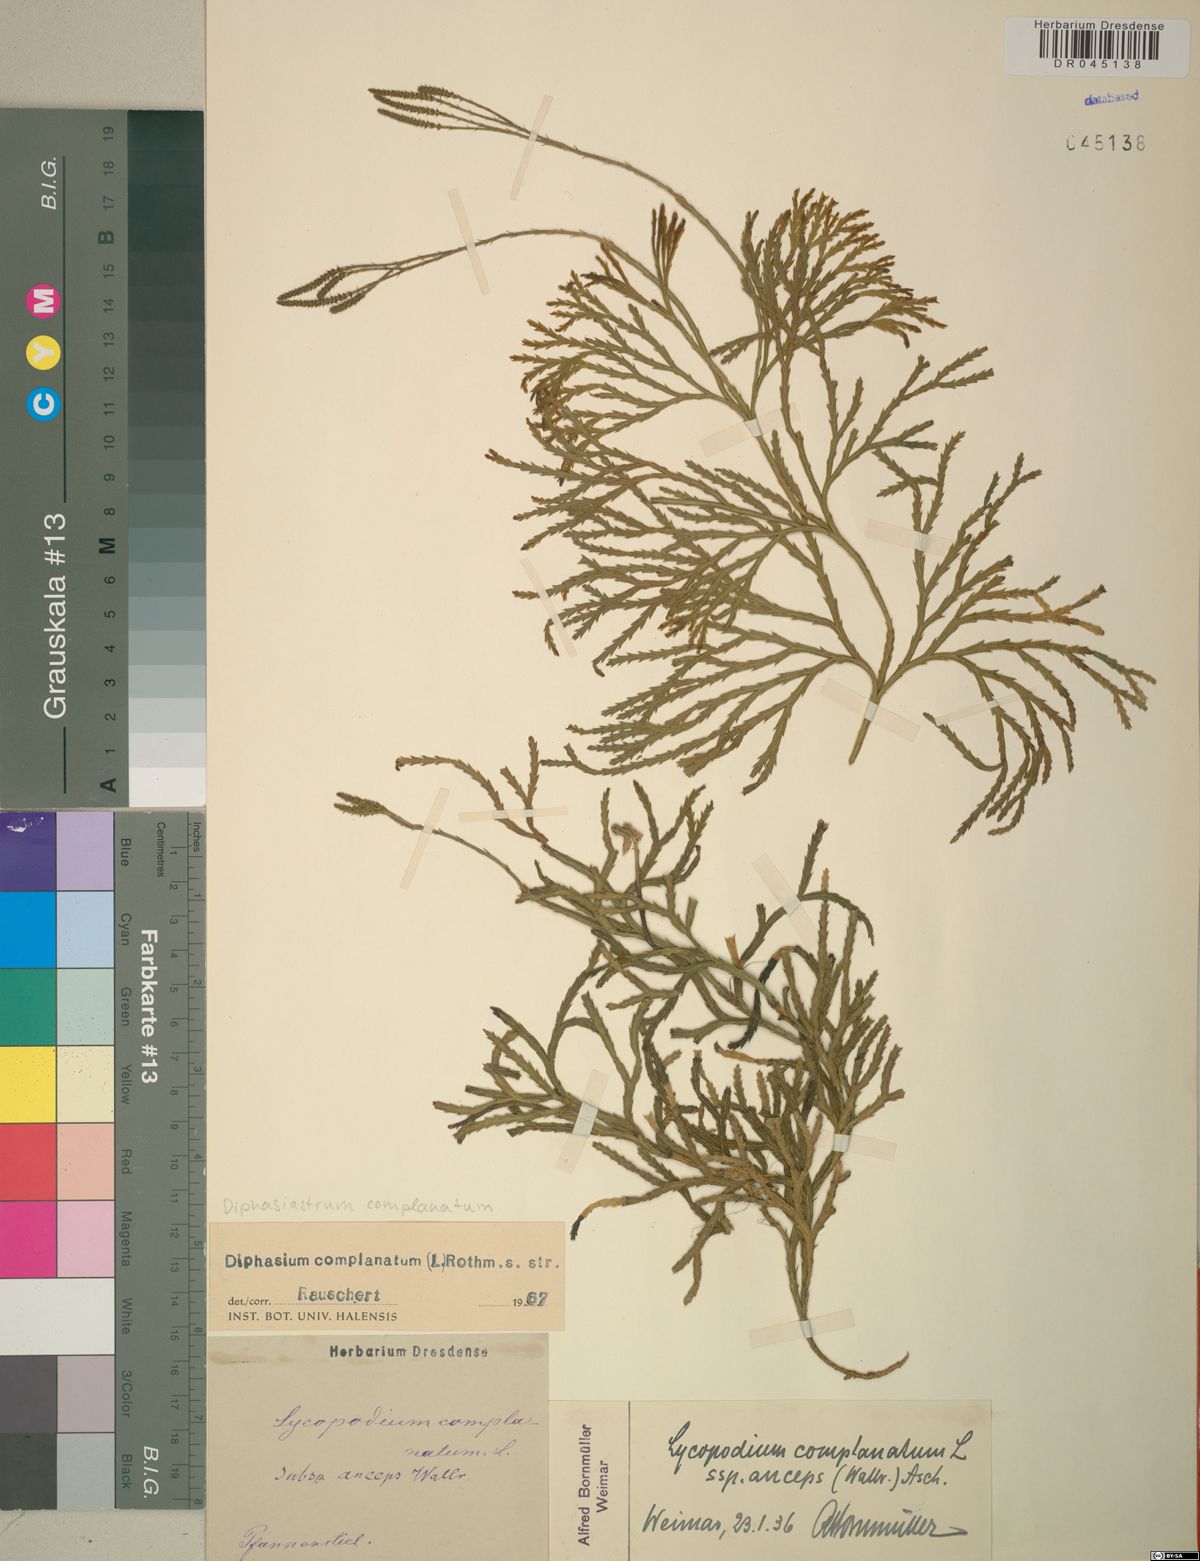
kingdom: Plantae
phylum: Tracheophyta
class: Lycopodiopsida
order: Lycopodiales
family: Lycopodiaceae
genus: Diphasiastrum
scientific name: Diphasiastrum complanatum
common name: Northern running-pine
